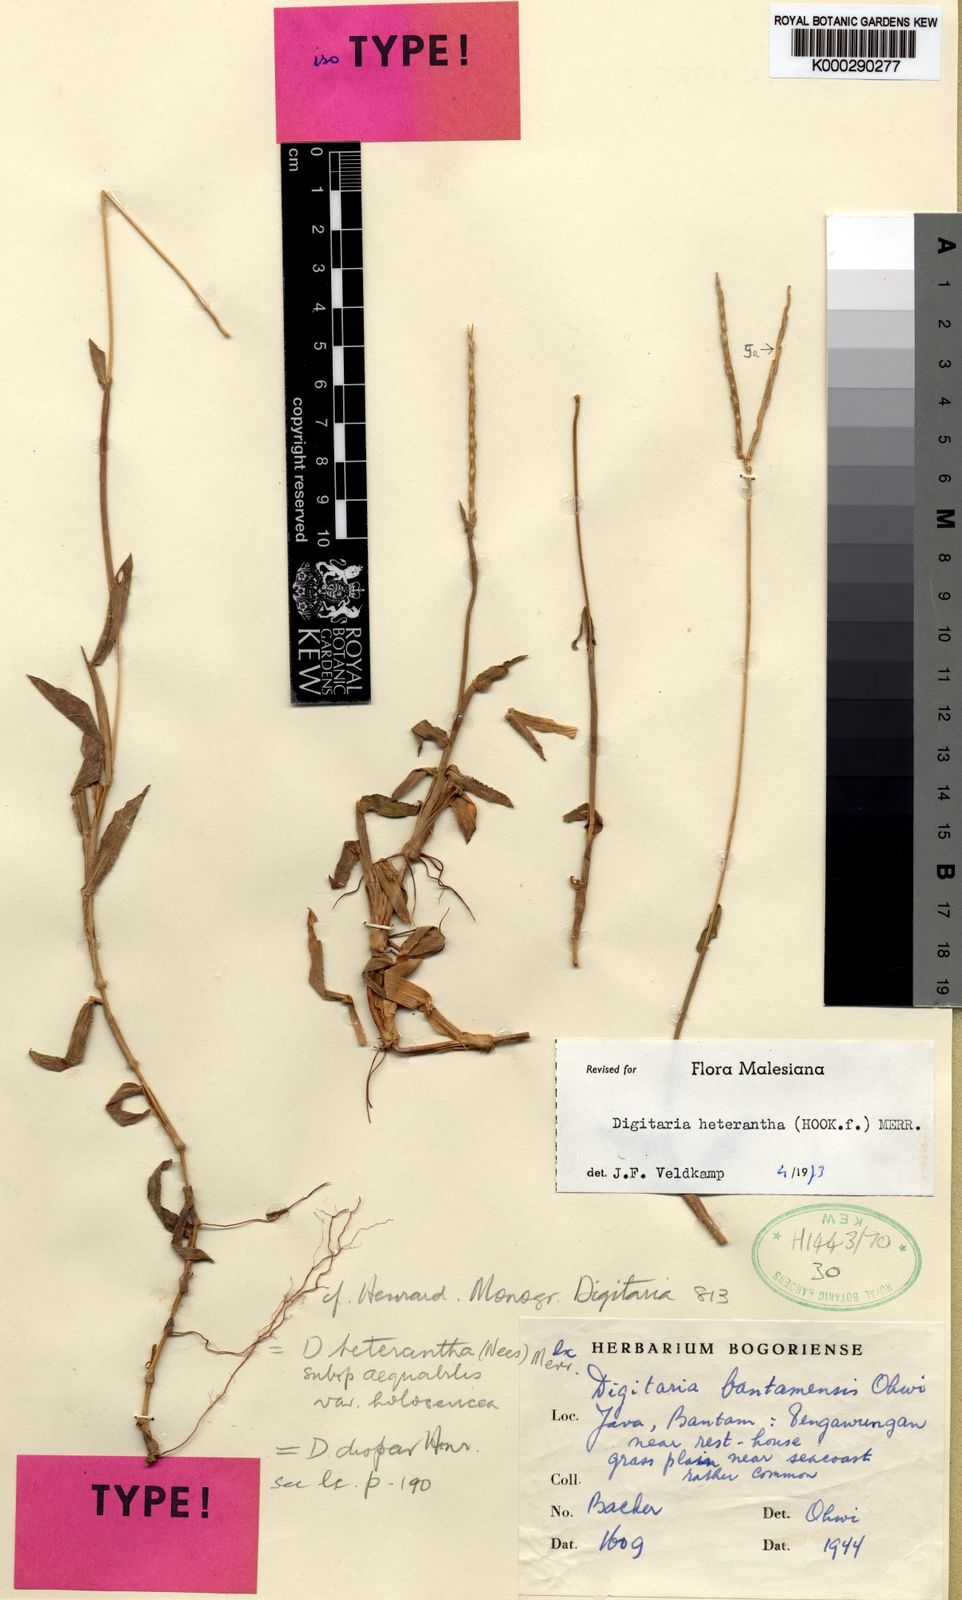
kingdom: Plantae
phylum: Tracheophyta
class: Liliopsida
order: Poales
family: Poaceae
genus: Digitaria
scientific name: Digitaria heterantha
